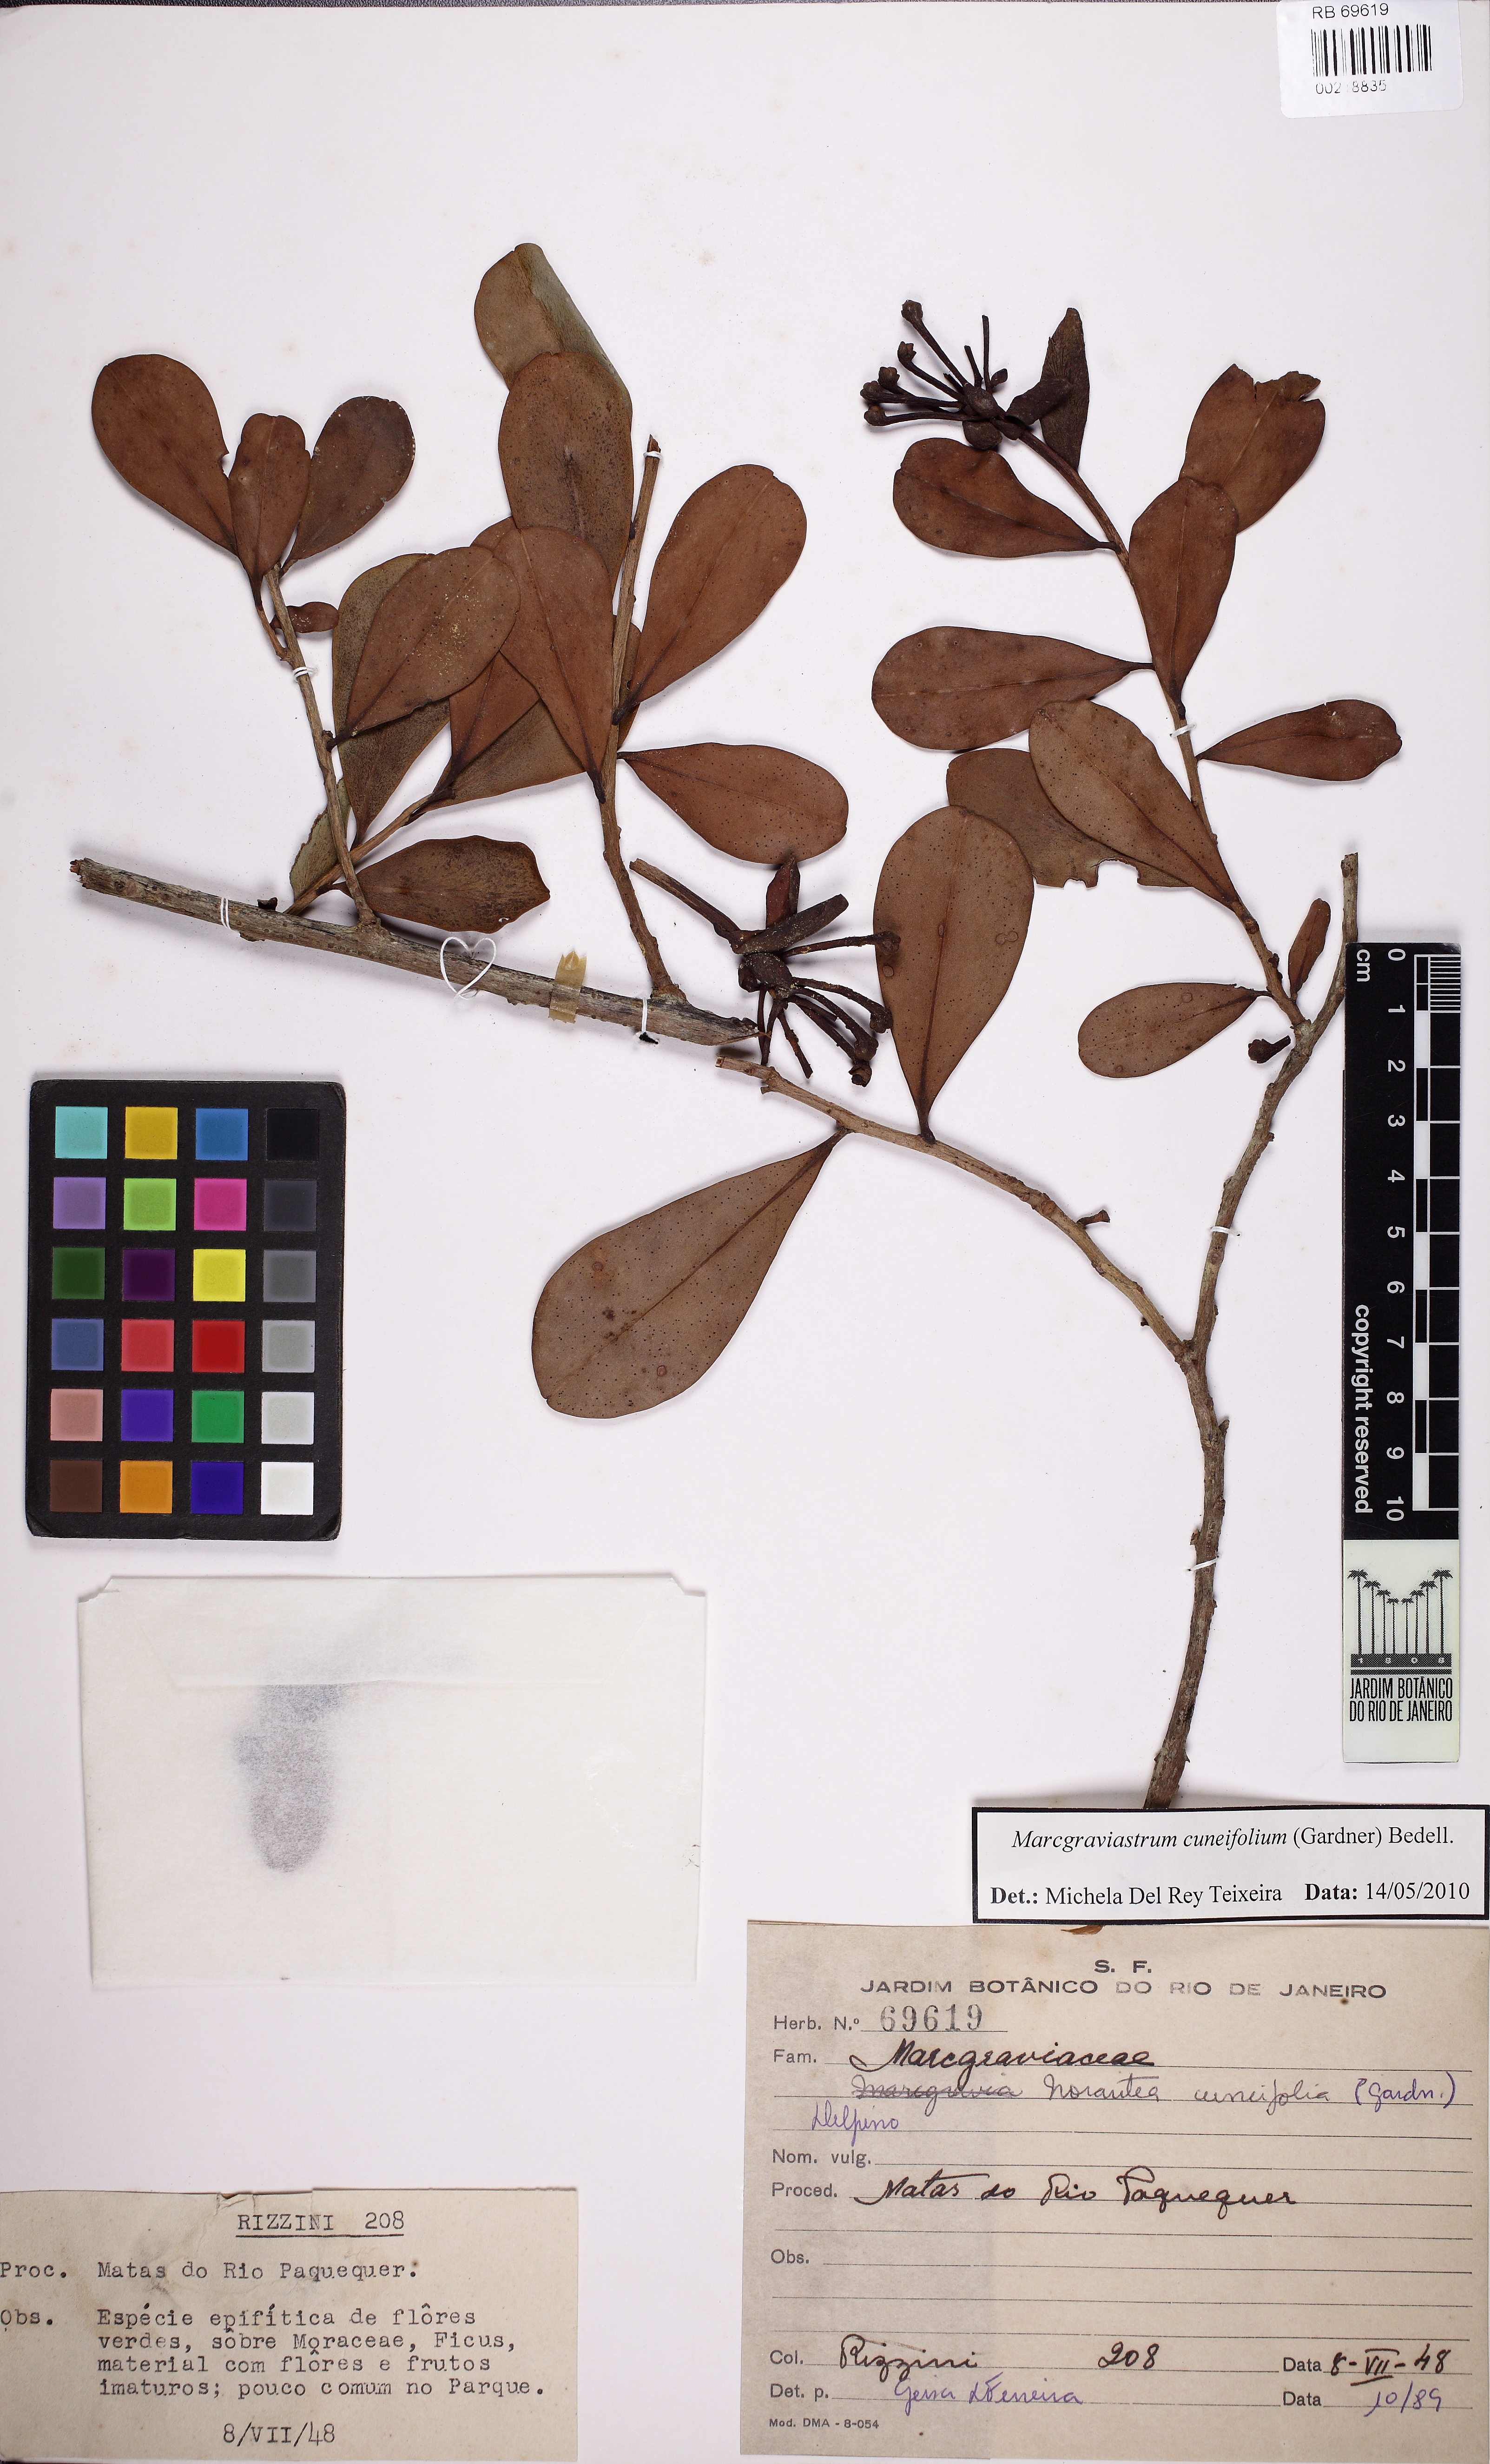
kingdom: Plantae
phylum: Tracheophyta
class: Magnoliopsida
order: Ericales
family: Marcgraviaceae
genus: Marcgraviastrum
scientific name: Marcgraviastrum cuneifolium
